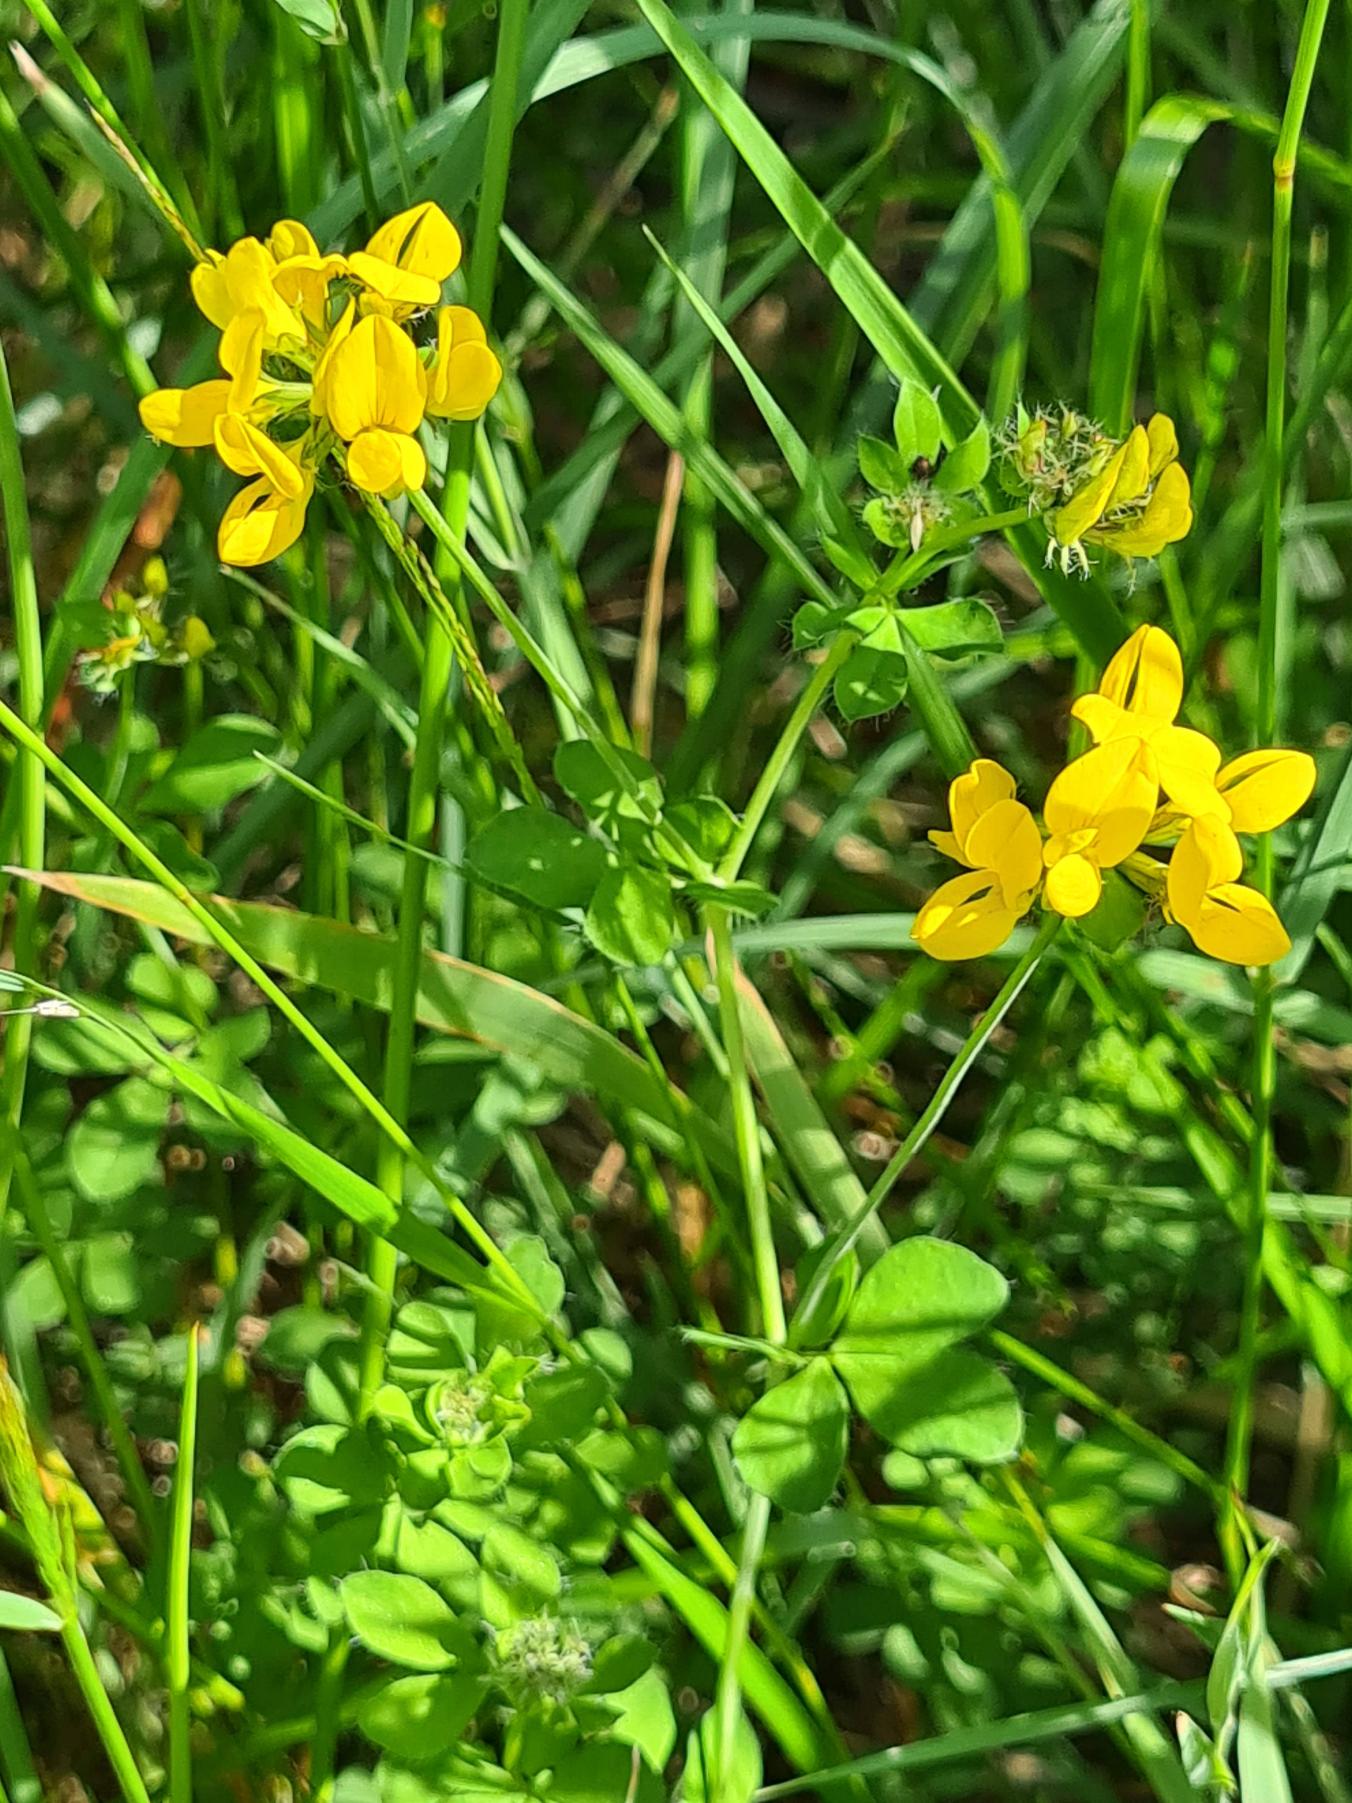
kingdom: Plantae
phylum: Tracheophyta
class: Magnoliopsida
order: Fabales
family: Fabaceae
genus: Lotus
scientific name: Lotus pedunculatus
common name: Sump-kællingetand
